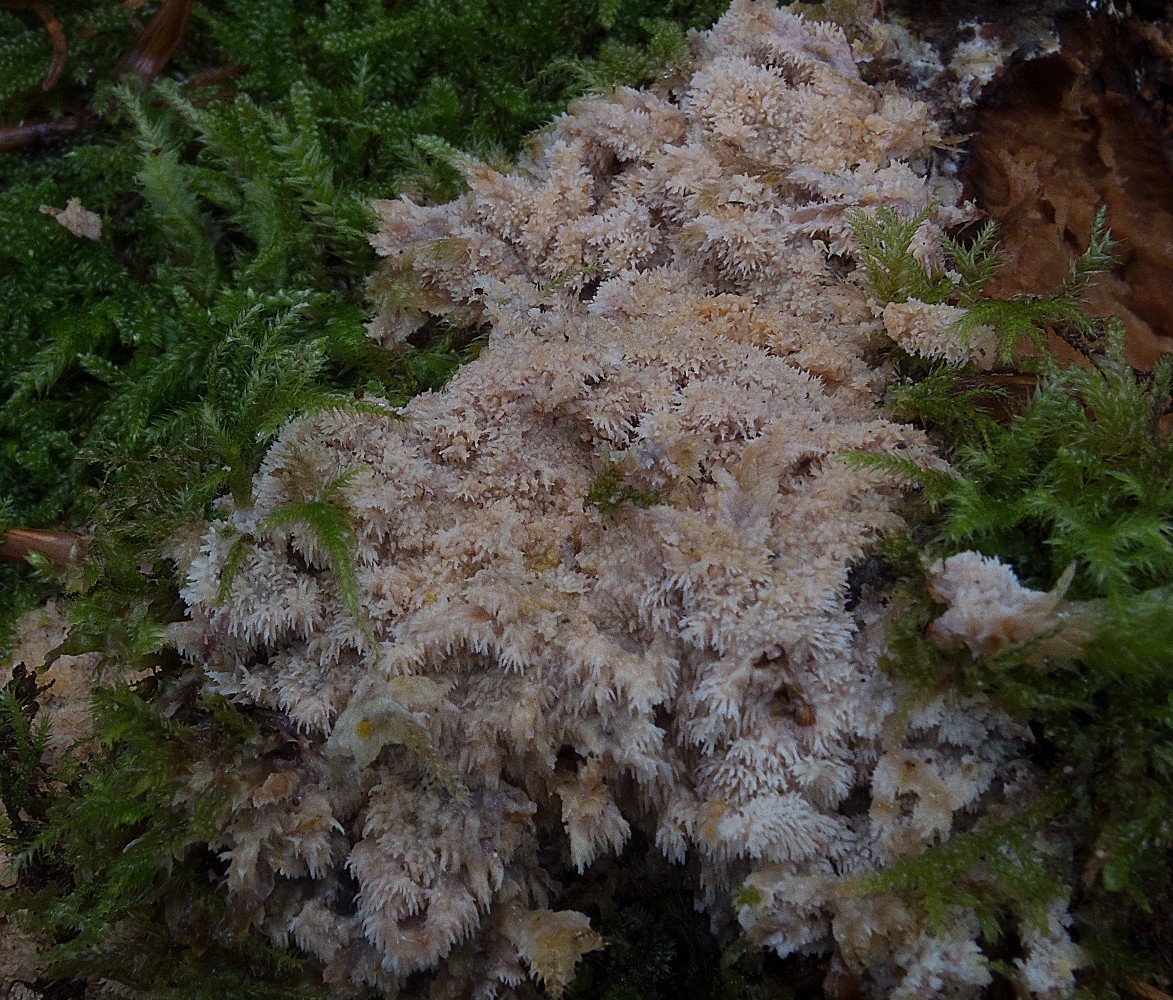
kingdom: Fungi
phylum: Basidiomycota
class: Agaricomycetes
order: Polyporales
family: Meruliaceae
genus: Mycoacia
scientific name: Mycoacia aurea
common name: lang vokspig
